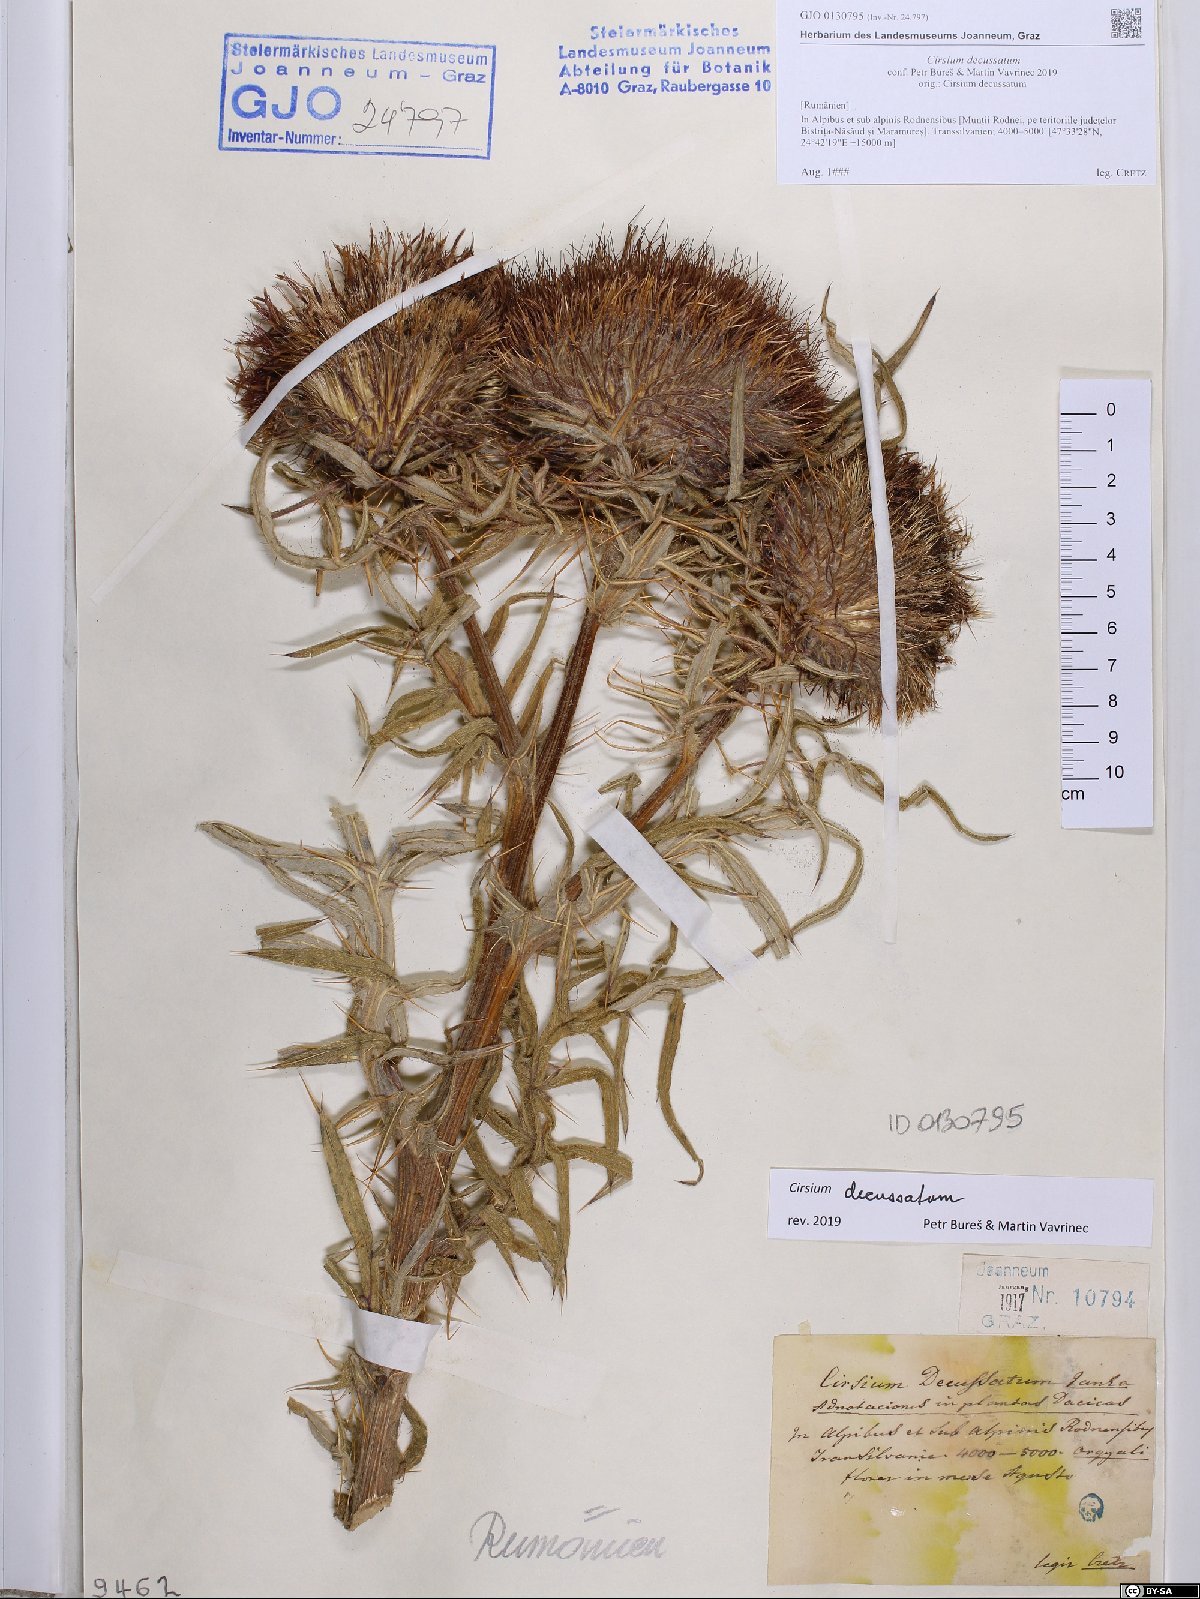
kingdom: Plantae
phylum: Tracheophyta
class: Magnoliopsida
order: Asterales
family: Asteraceae
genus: Lophiolepis
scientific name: Lophiolepis decussata
